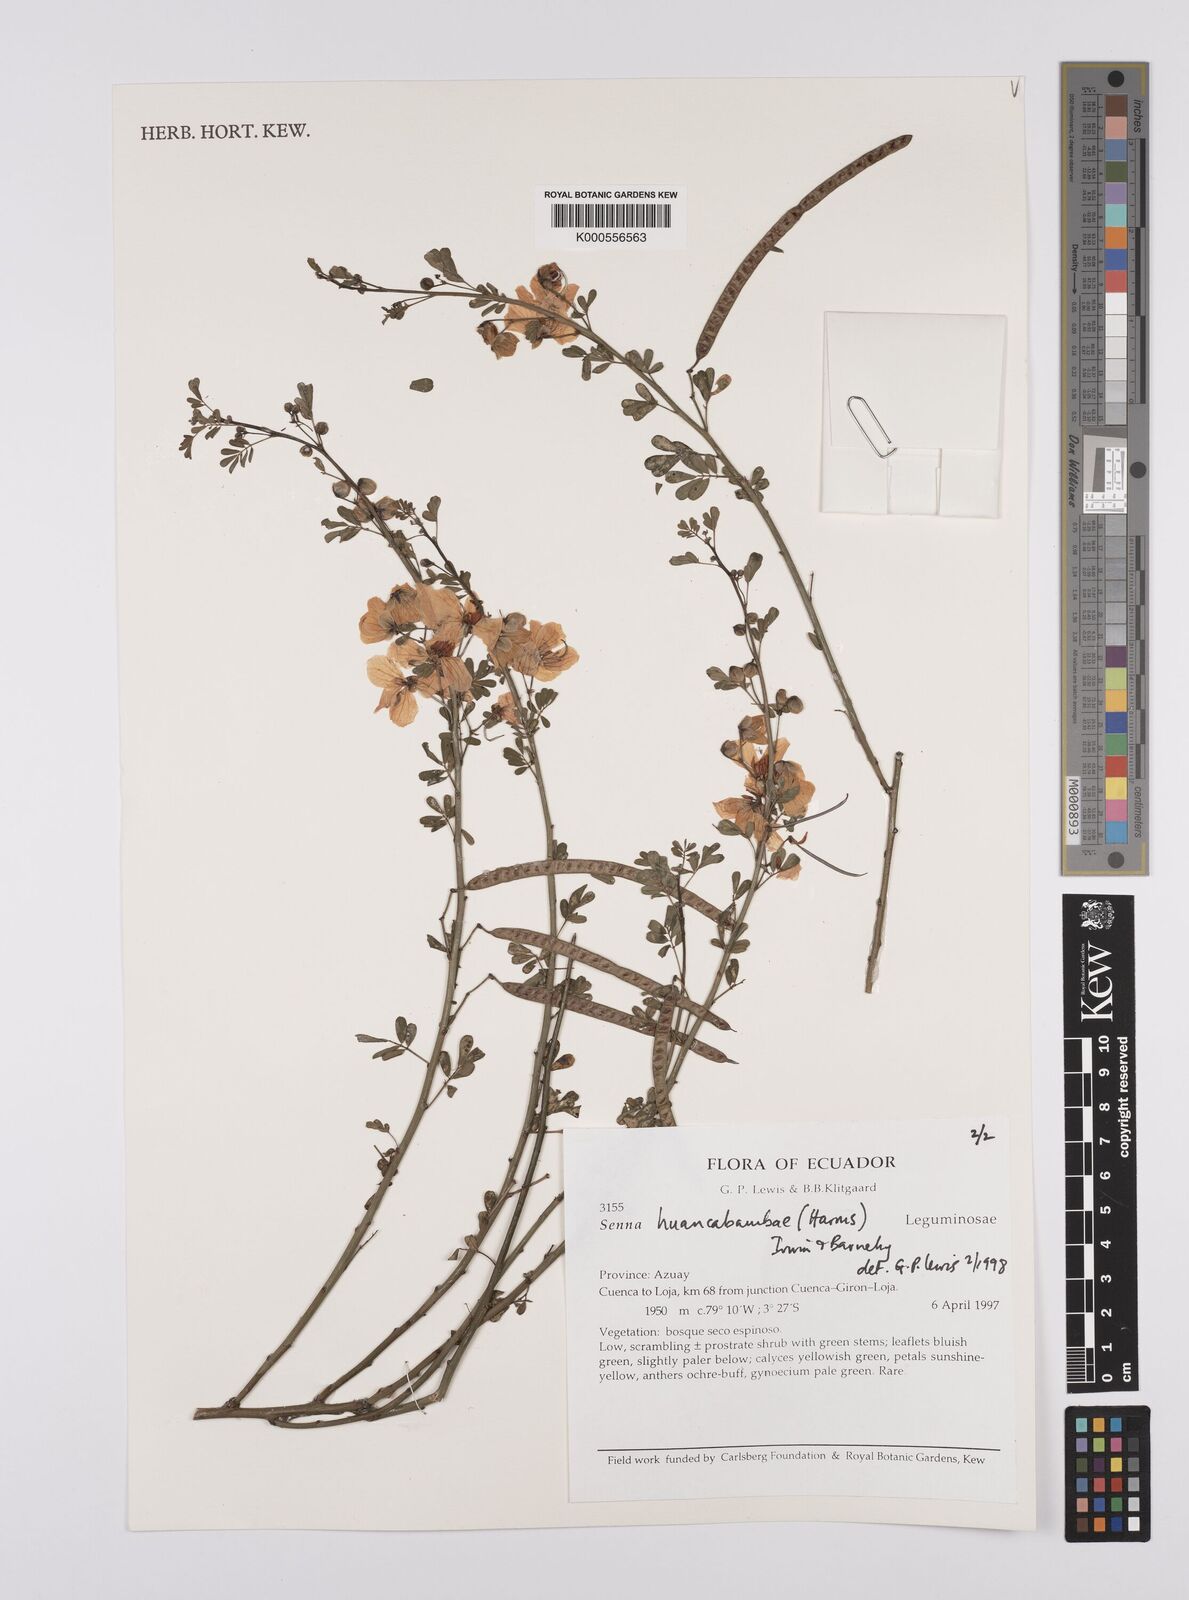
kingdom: Plantae
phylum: Tracheophyta
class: Magnoliopsida
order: Fabales
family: Fabaceae
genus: Senna
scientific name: Senna huancabambae
